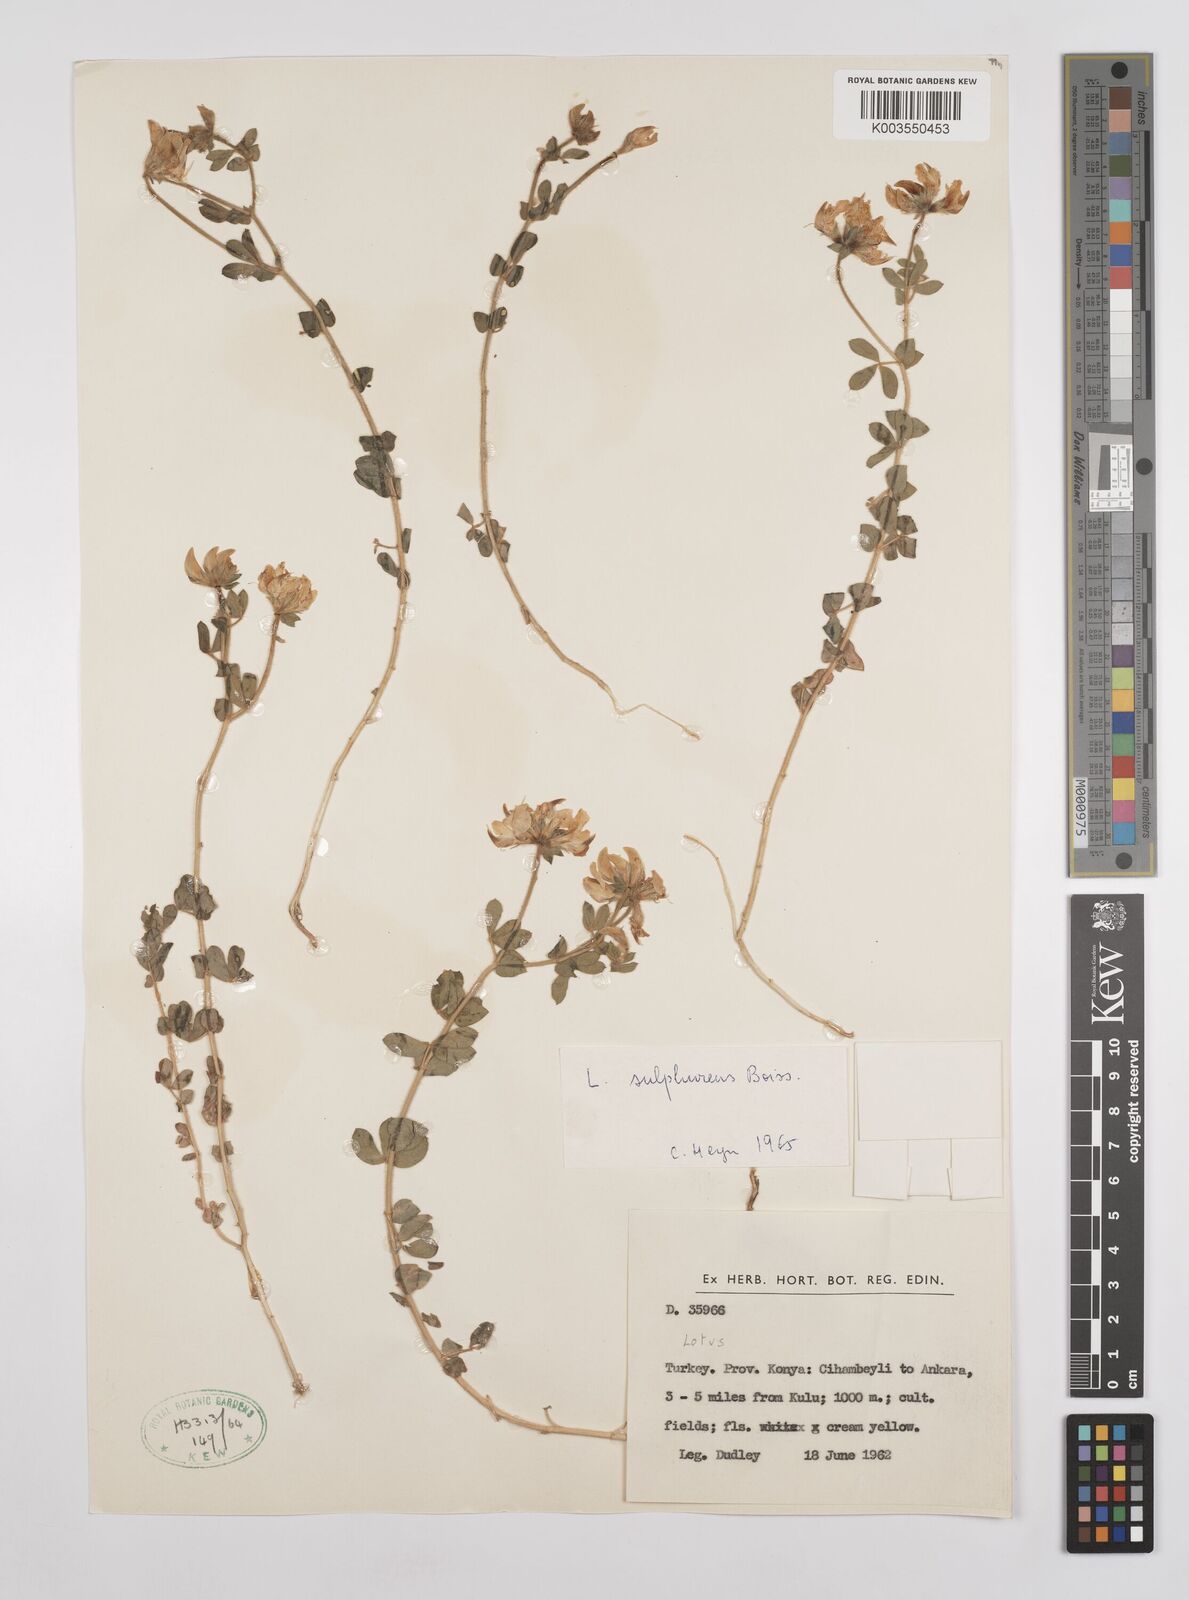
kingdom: Plantae
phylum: Tracheophyta
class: Magnoliopsida
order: Fabales
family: Fabaceae
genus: Lotus
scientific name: Lotus aegaeus
